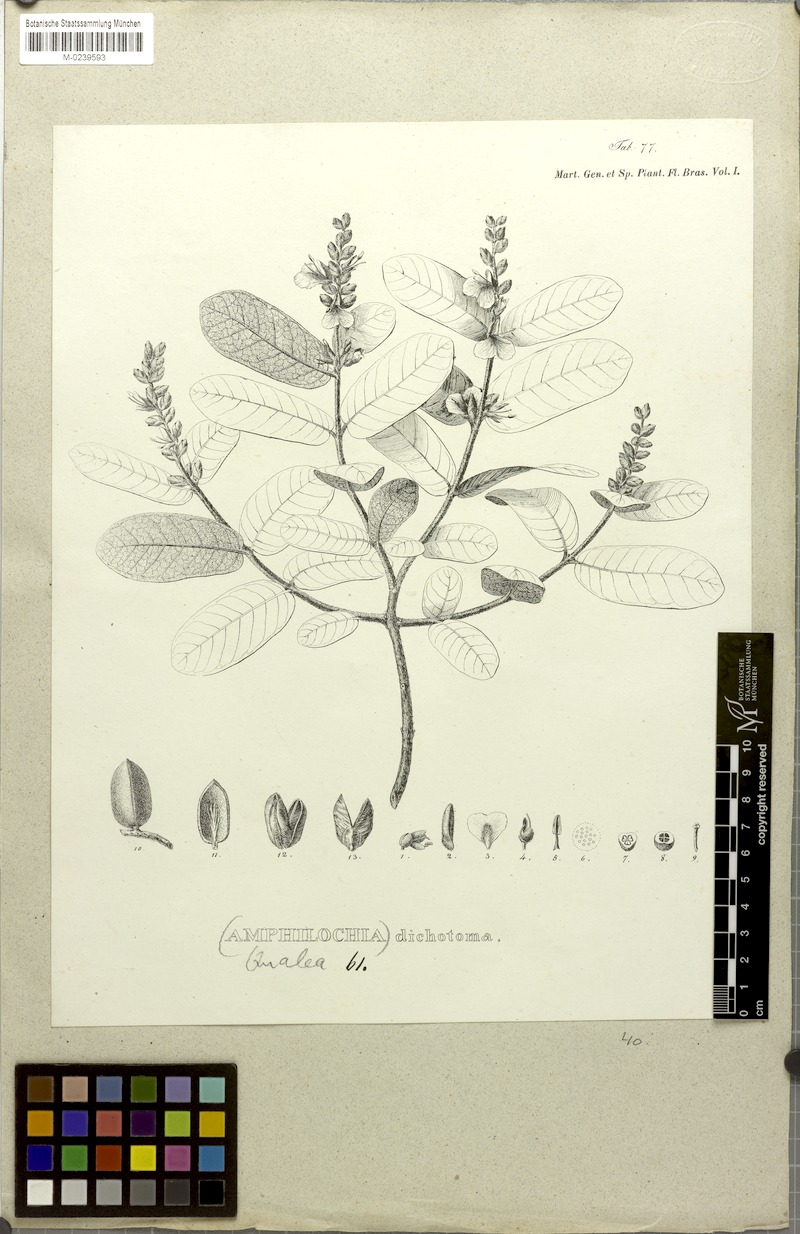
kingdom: Plantae
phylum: Tracheophyta
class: Magnoliopsida
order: Myrtales
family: Vochysiaceae
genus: Qualea
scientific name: Qualea cordata
